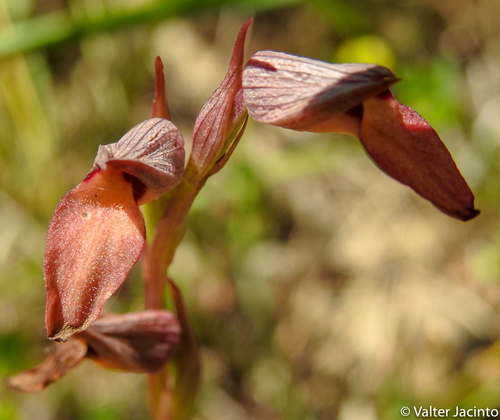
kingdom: Plantae
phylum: Tracheophyta
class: Liliopsida
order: Asparagales
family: Orchidaceae
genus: Serapias
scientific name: Serapias lingua
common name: Tongue-orchid
